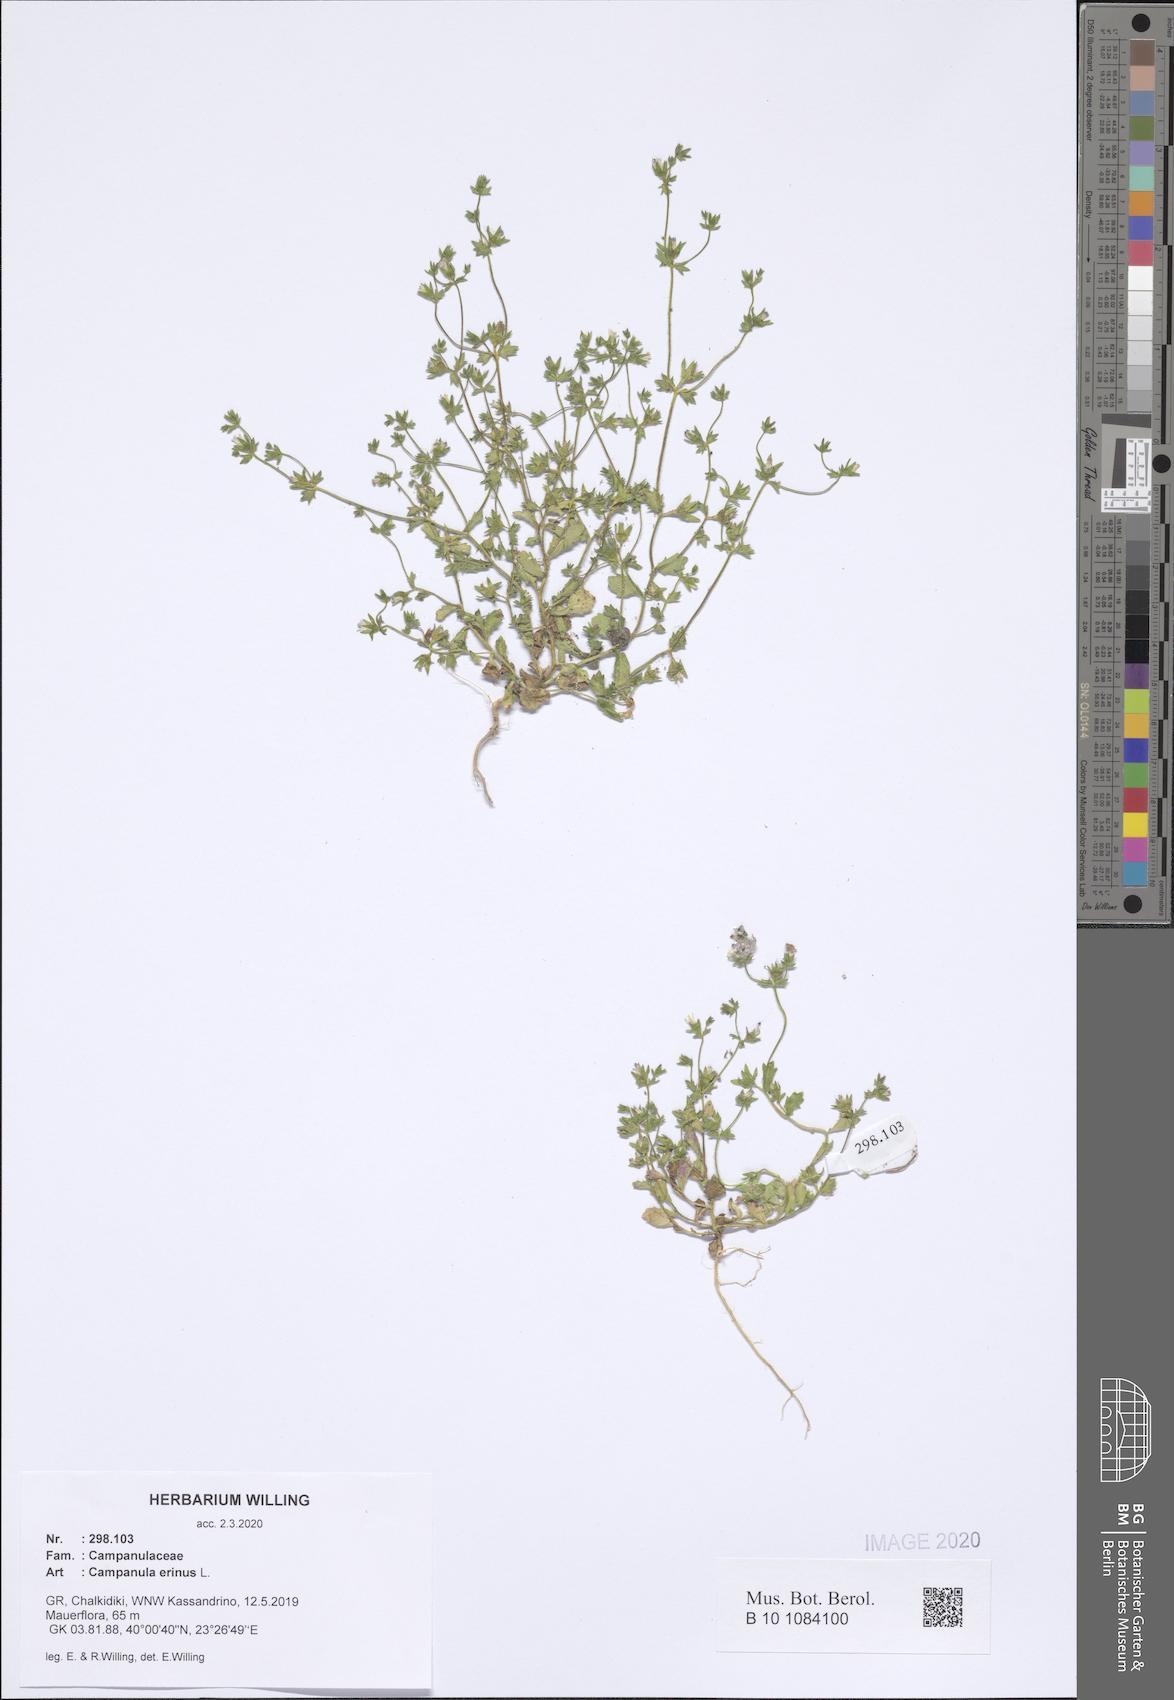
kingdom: Plantae
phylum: Tracheophyta
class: Magnoliopsida
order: Asterales
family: Campanulaceae
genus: Campanula
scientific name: Campanula erinus
